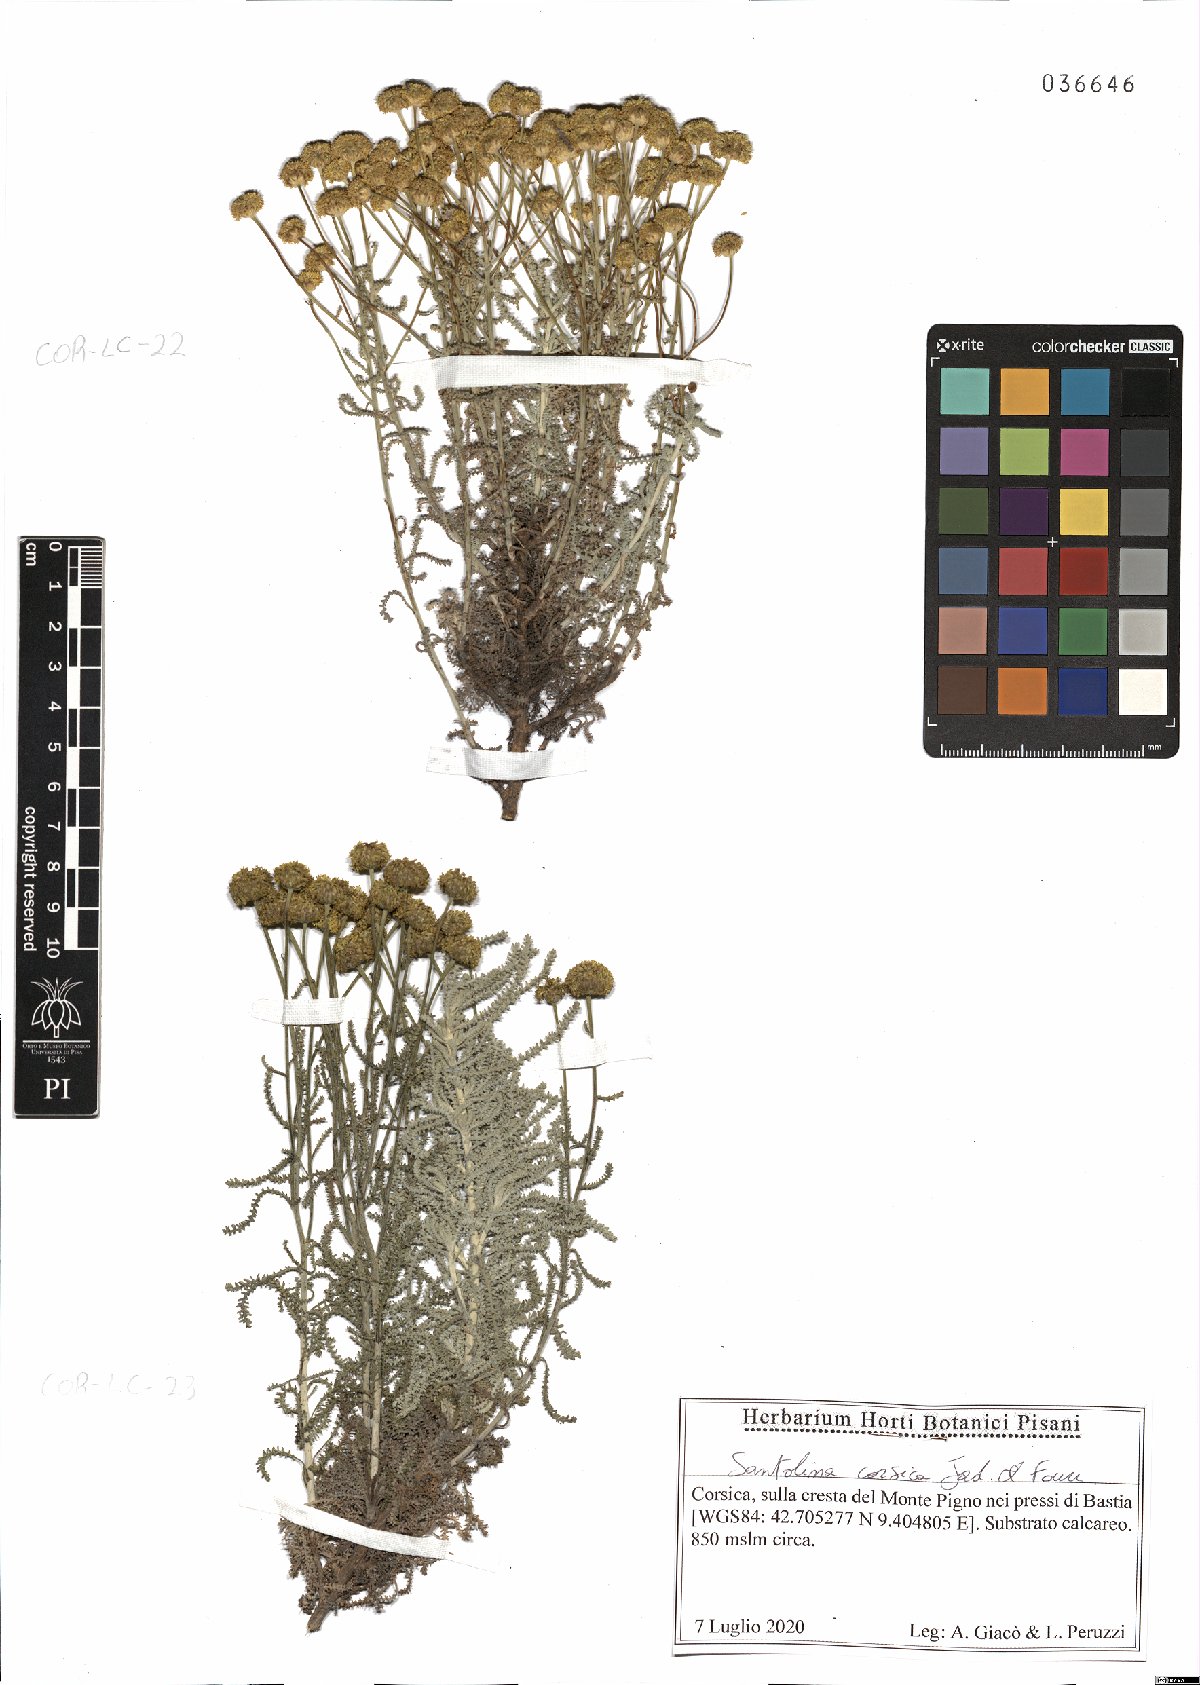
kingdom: Plantae
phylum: Tracheophyta
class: Magnoliopsida
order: Asterales
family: Asteraceae
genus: Santolina
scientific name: Santolina corsica
